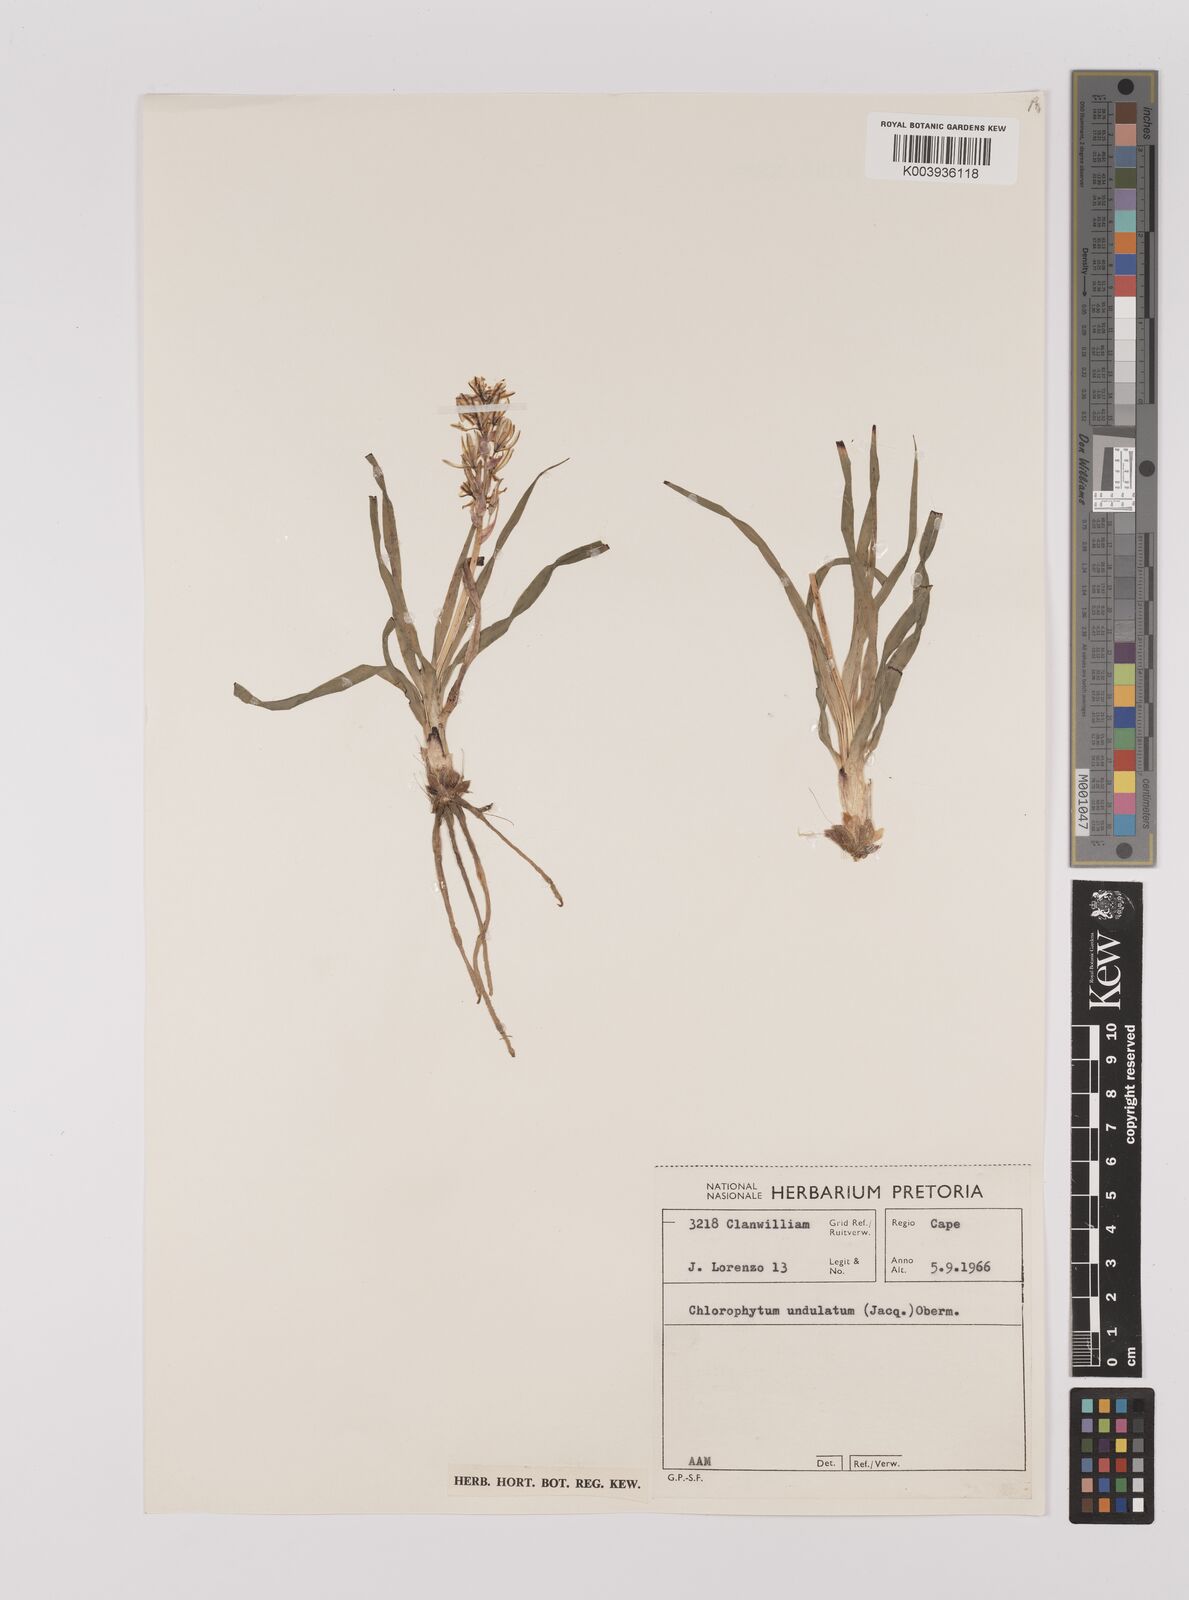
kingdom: Plantae
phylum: Tracheophyta
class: Liliopsida
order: Asparagales
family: Asparagaceae
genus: Chlorophytum
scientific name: Chlorophytum graminifolium
